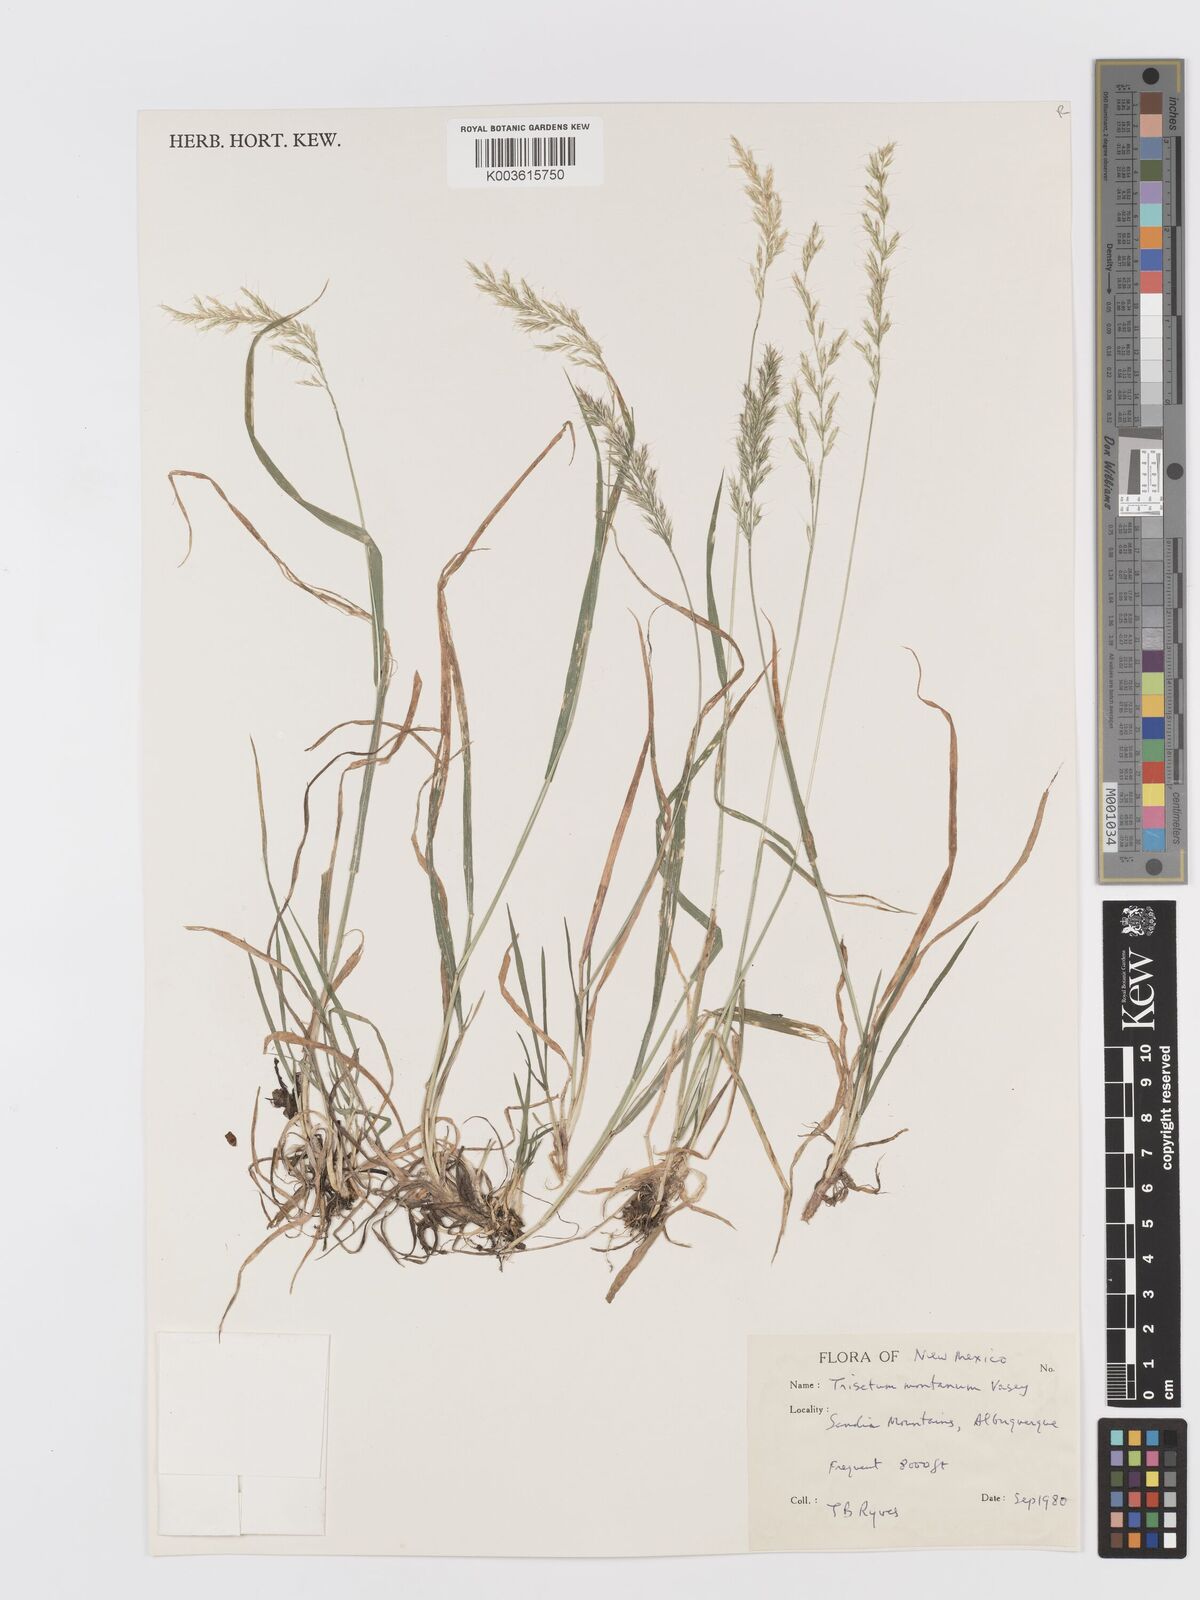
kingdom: Plantae
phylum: Tracheophyta
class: Liliopsida
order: Poales
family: Poaceae
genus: Koeleria
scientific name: Koeleria vaseyi
